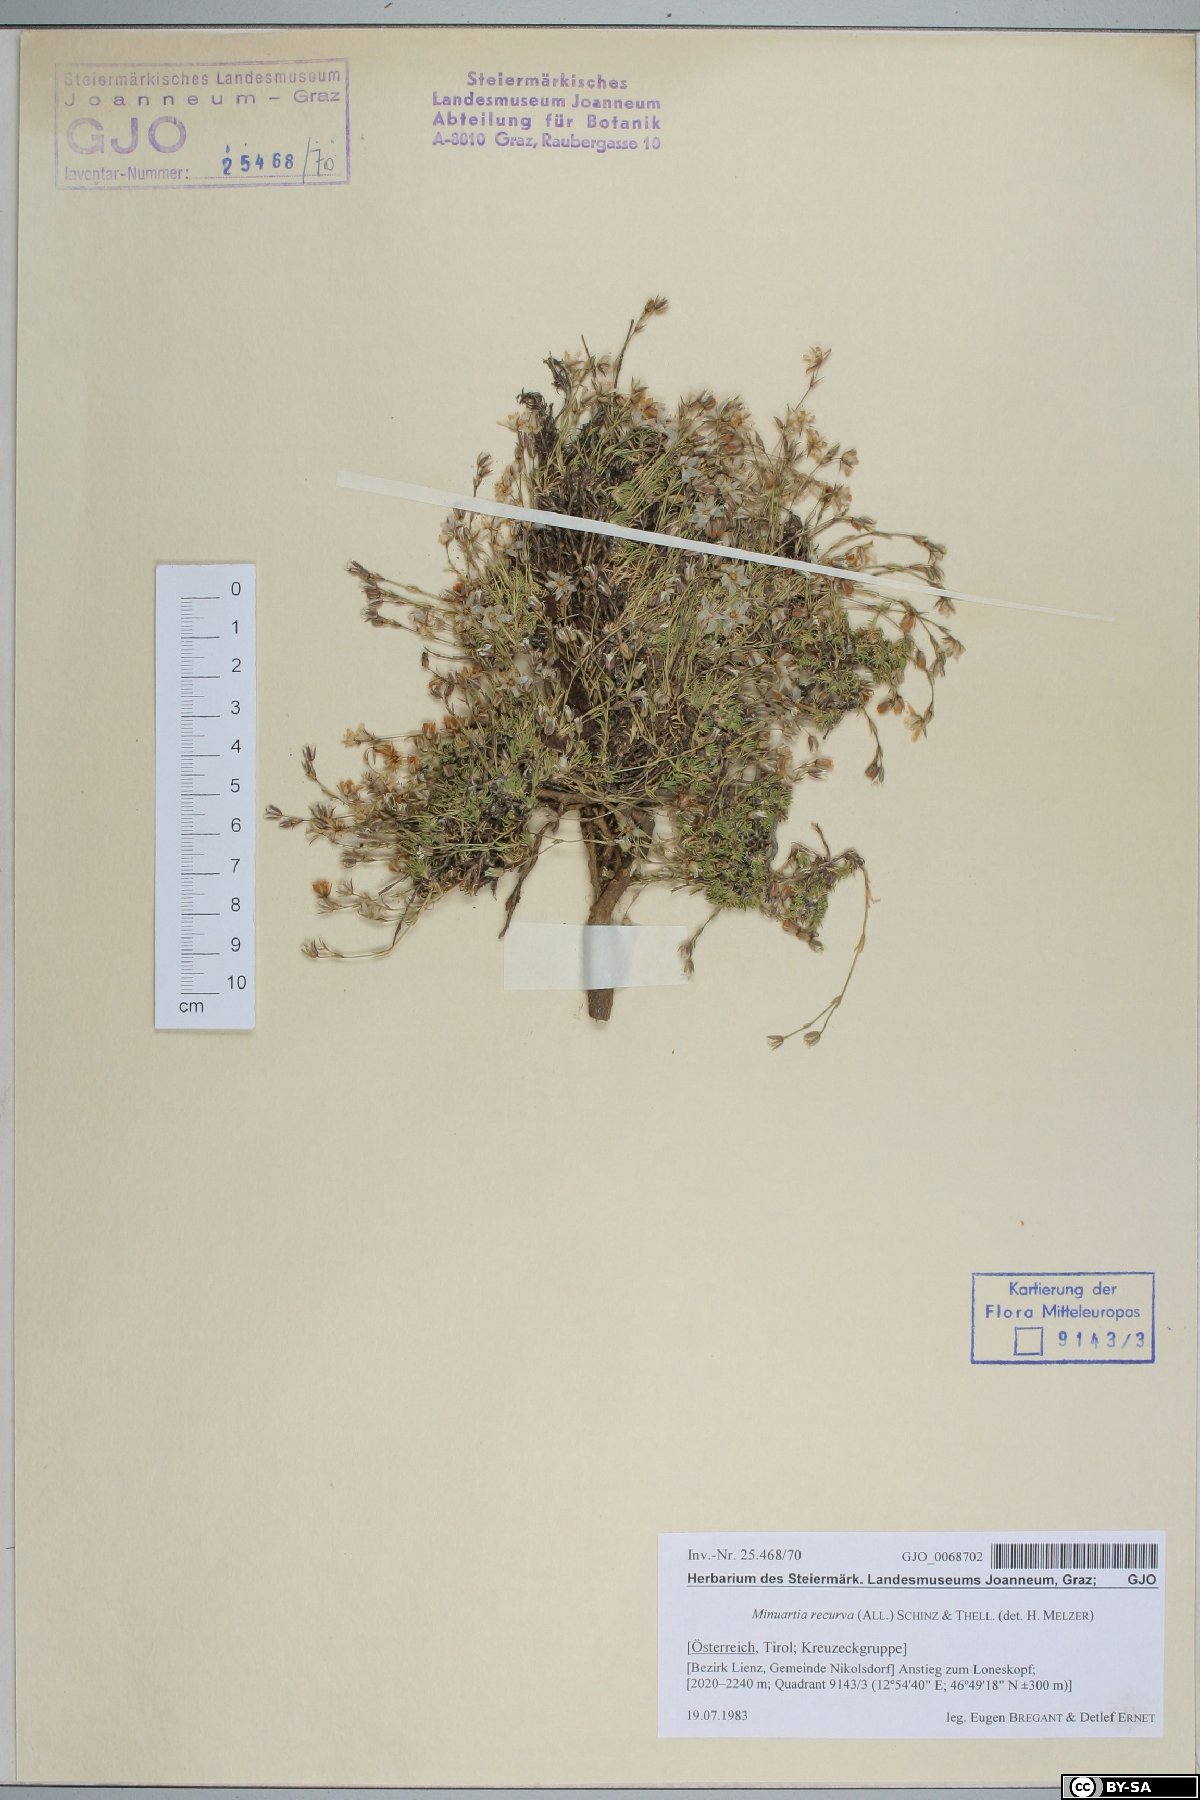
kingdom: Plantae
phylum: Tracheophyta
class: Magnoliopsida
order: Caryophyllales
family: Caryophyllaceae
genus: Minuartia
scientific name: Minuartia recurva
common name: Recurved sandwort
